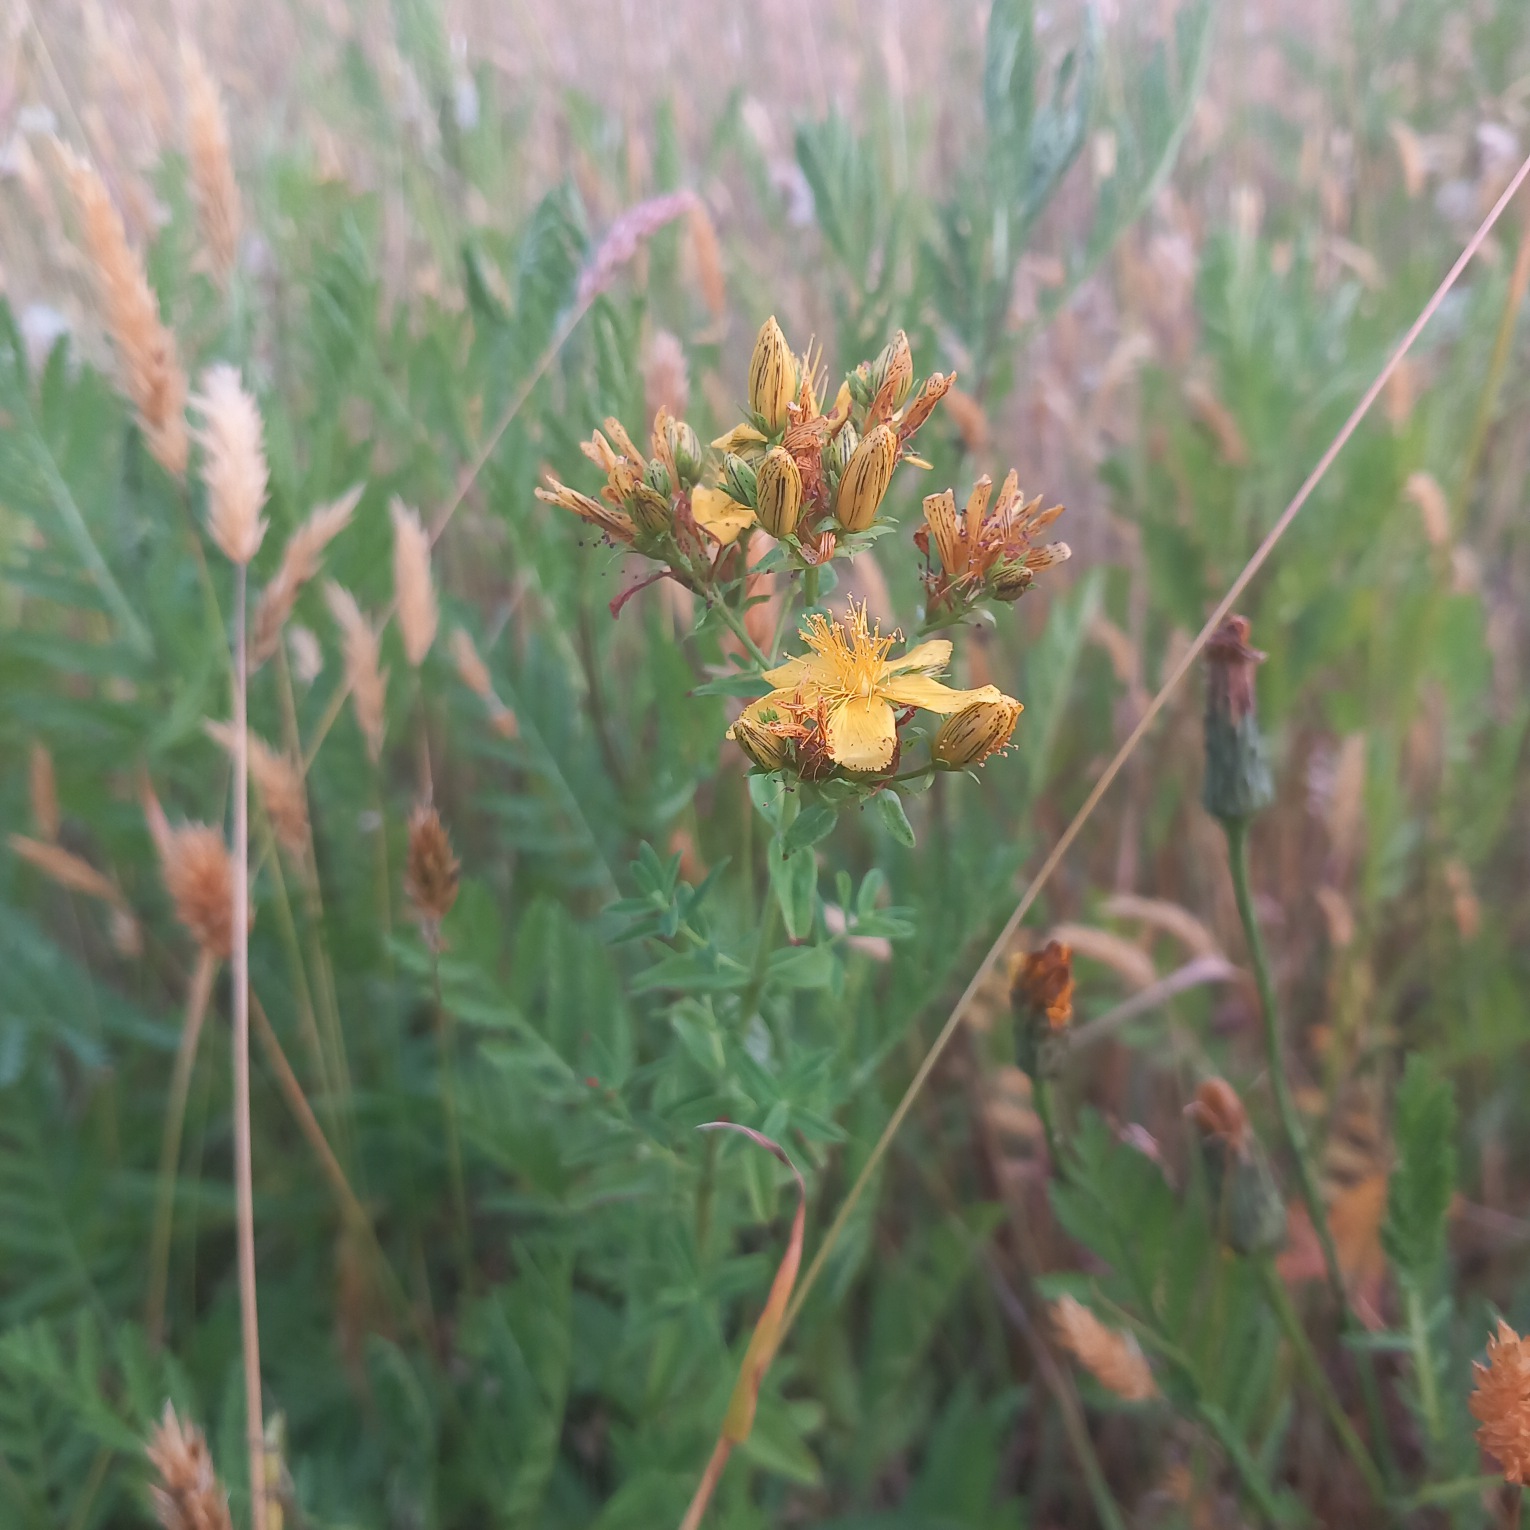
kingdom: Plantae
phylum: Tracheophyta
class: Magnoliopsida
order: Malpighiales
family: Hypericaceae
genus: Hypericum
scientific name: Hypericum perforatum
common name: Prikbladet perikon
